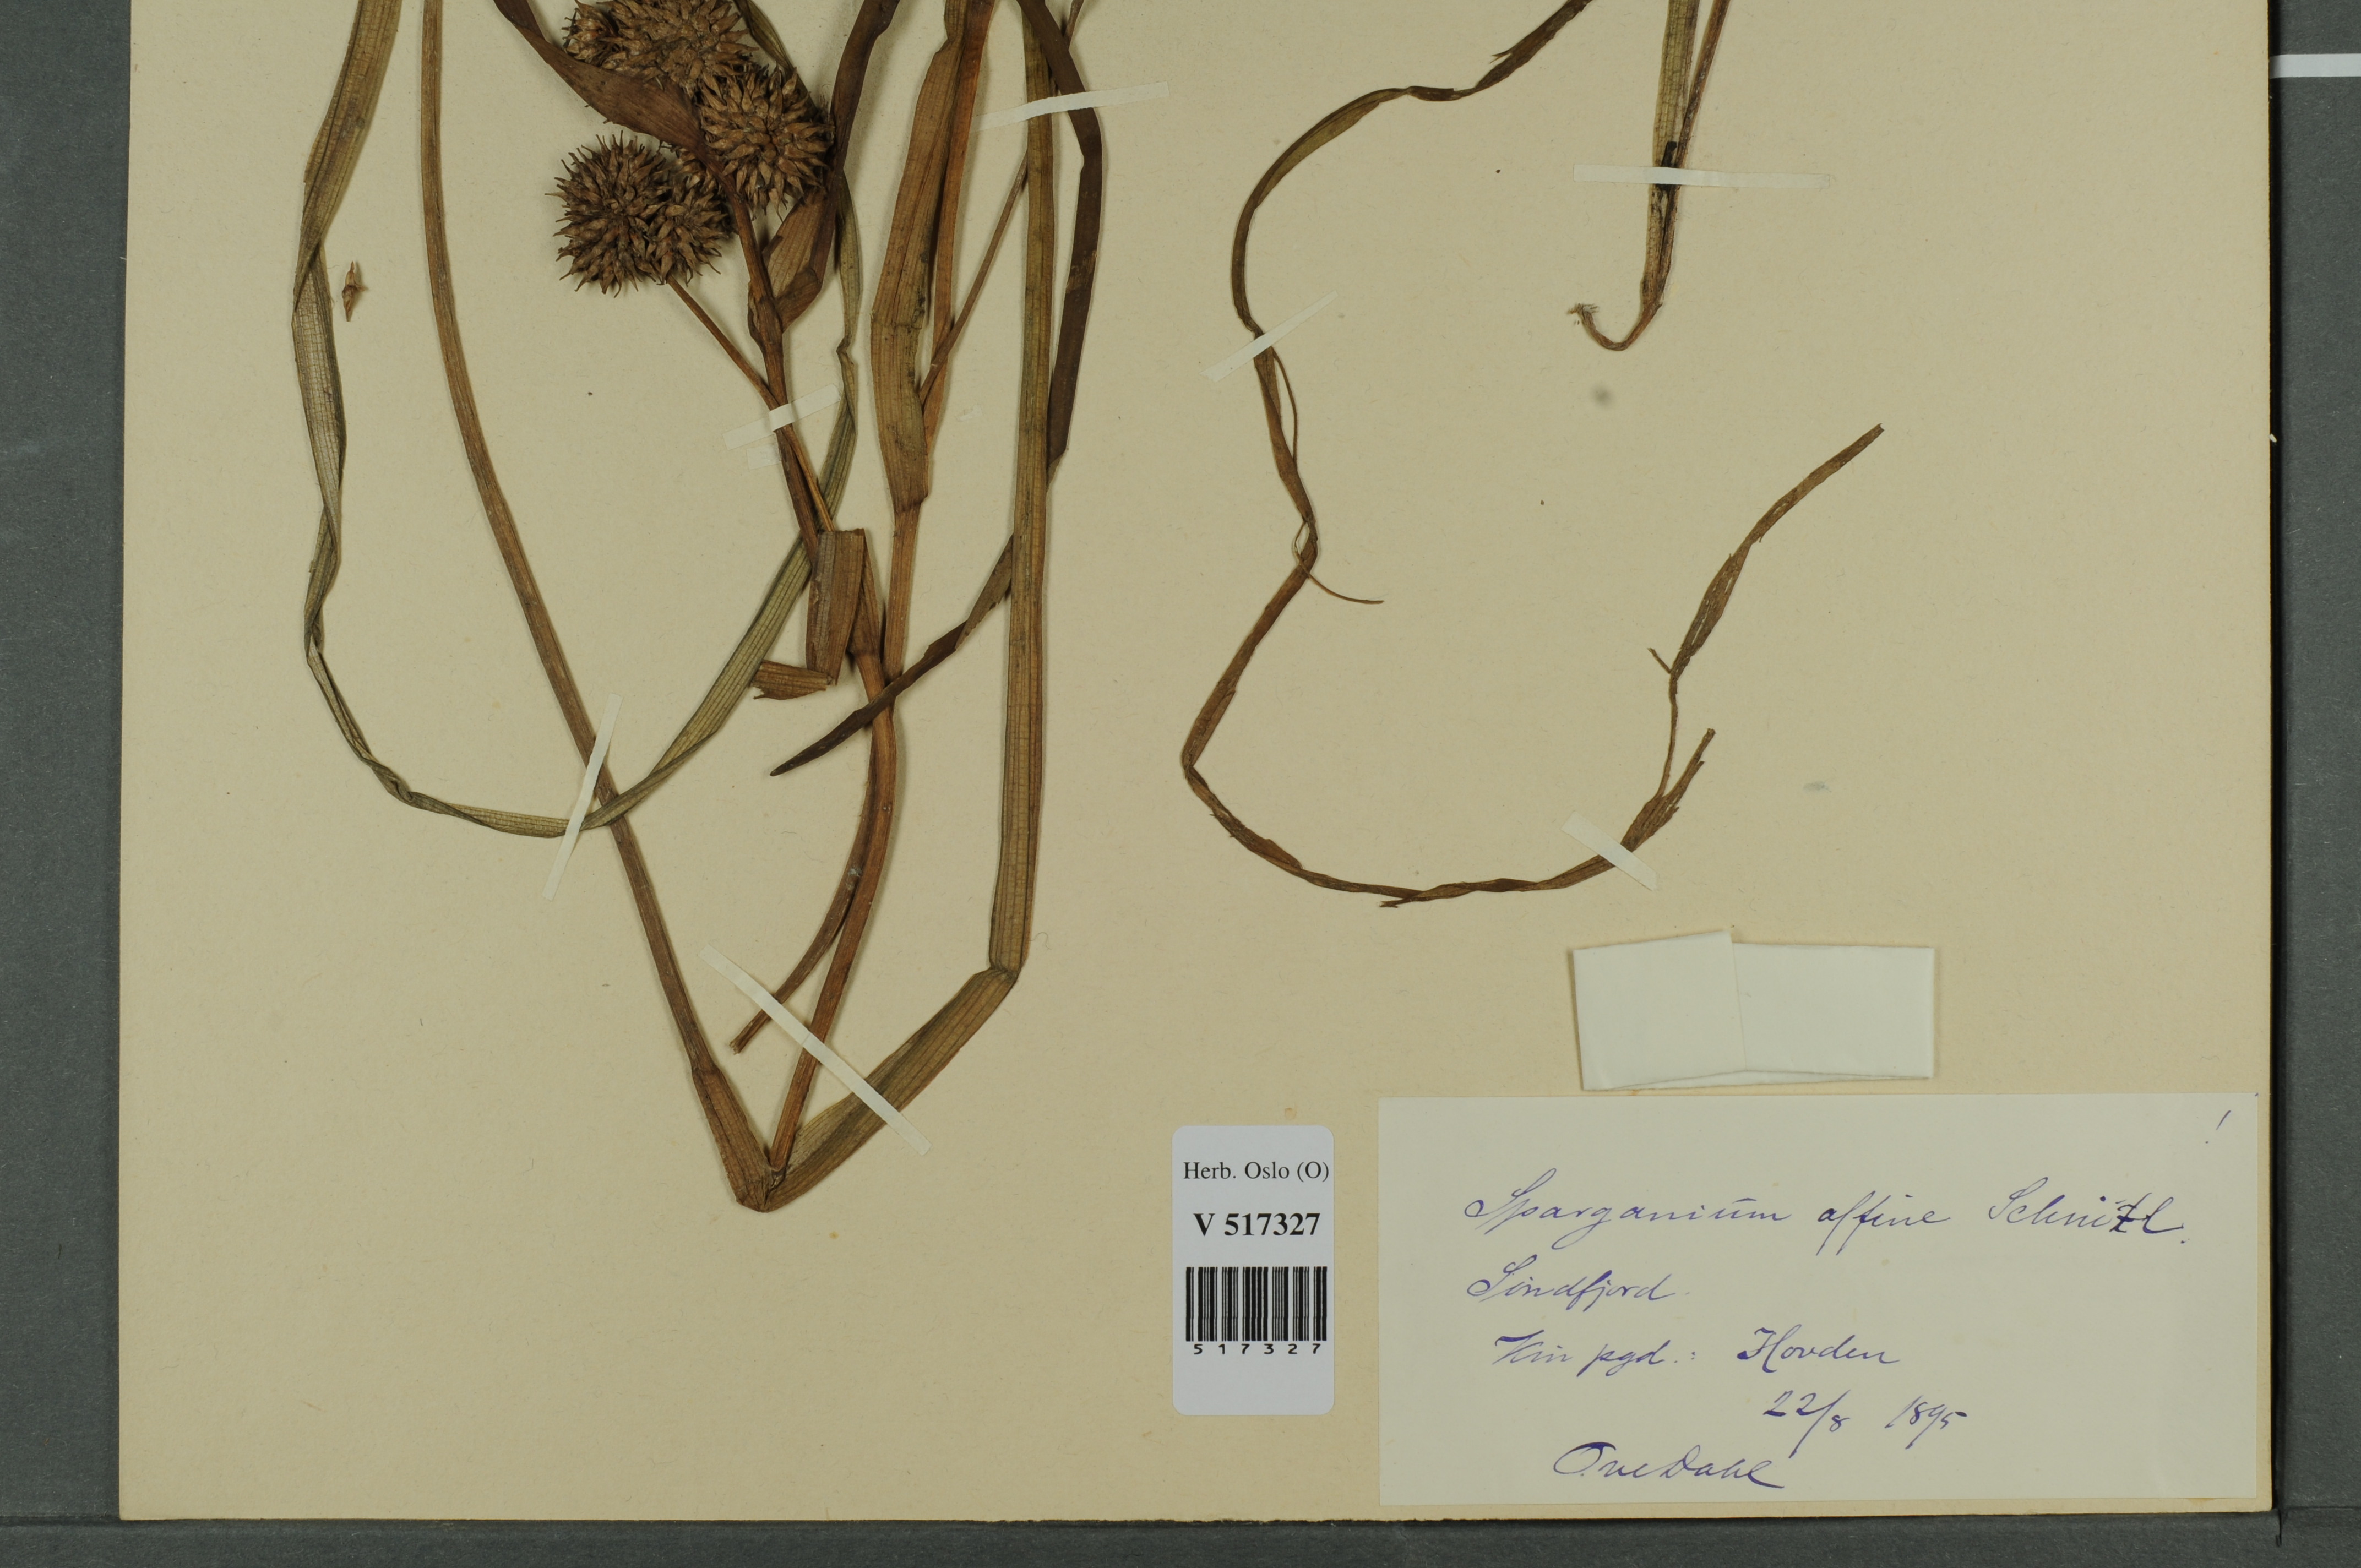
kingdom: Plantae
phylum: Tracheophyta
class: Liliopsida
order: Poales
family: Typhaceae
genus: Sparganium
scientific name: Sparganium angustifolium
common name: Floating bur-reed
